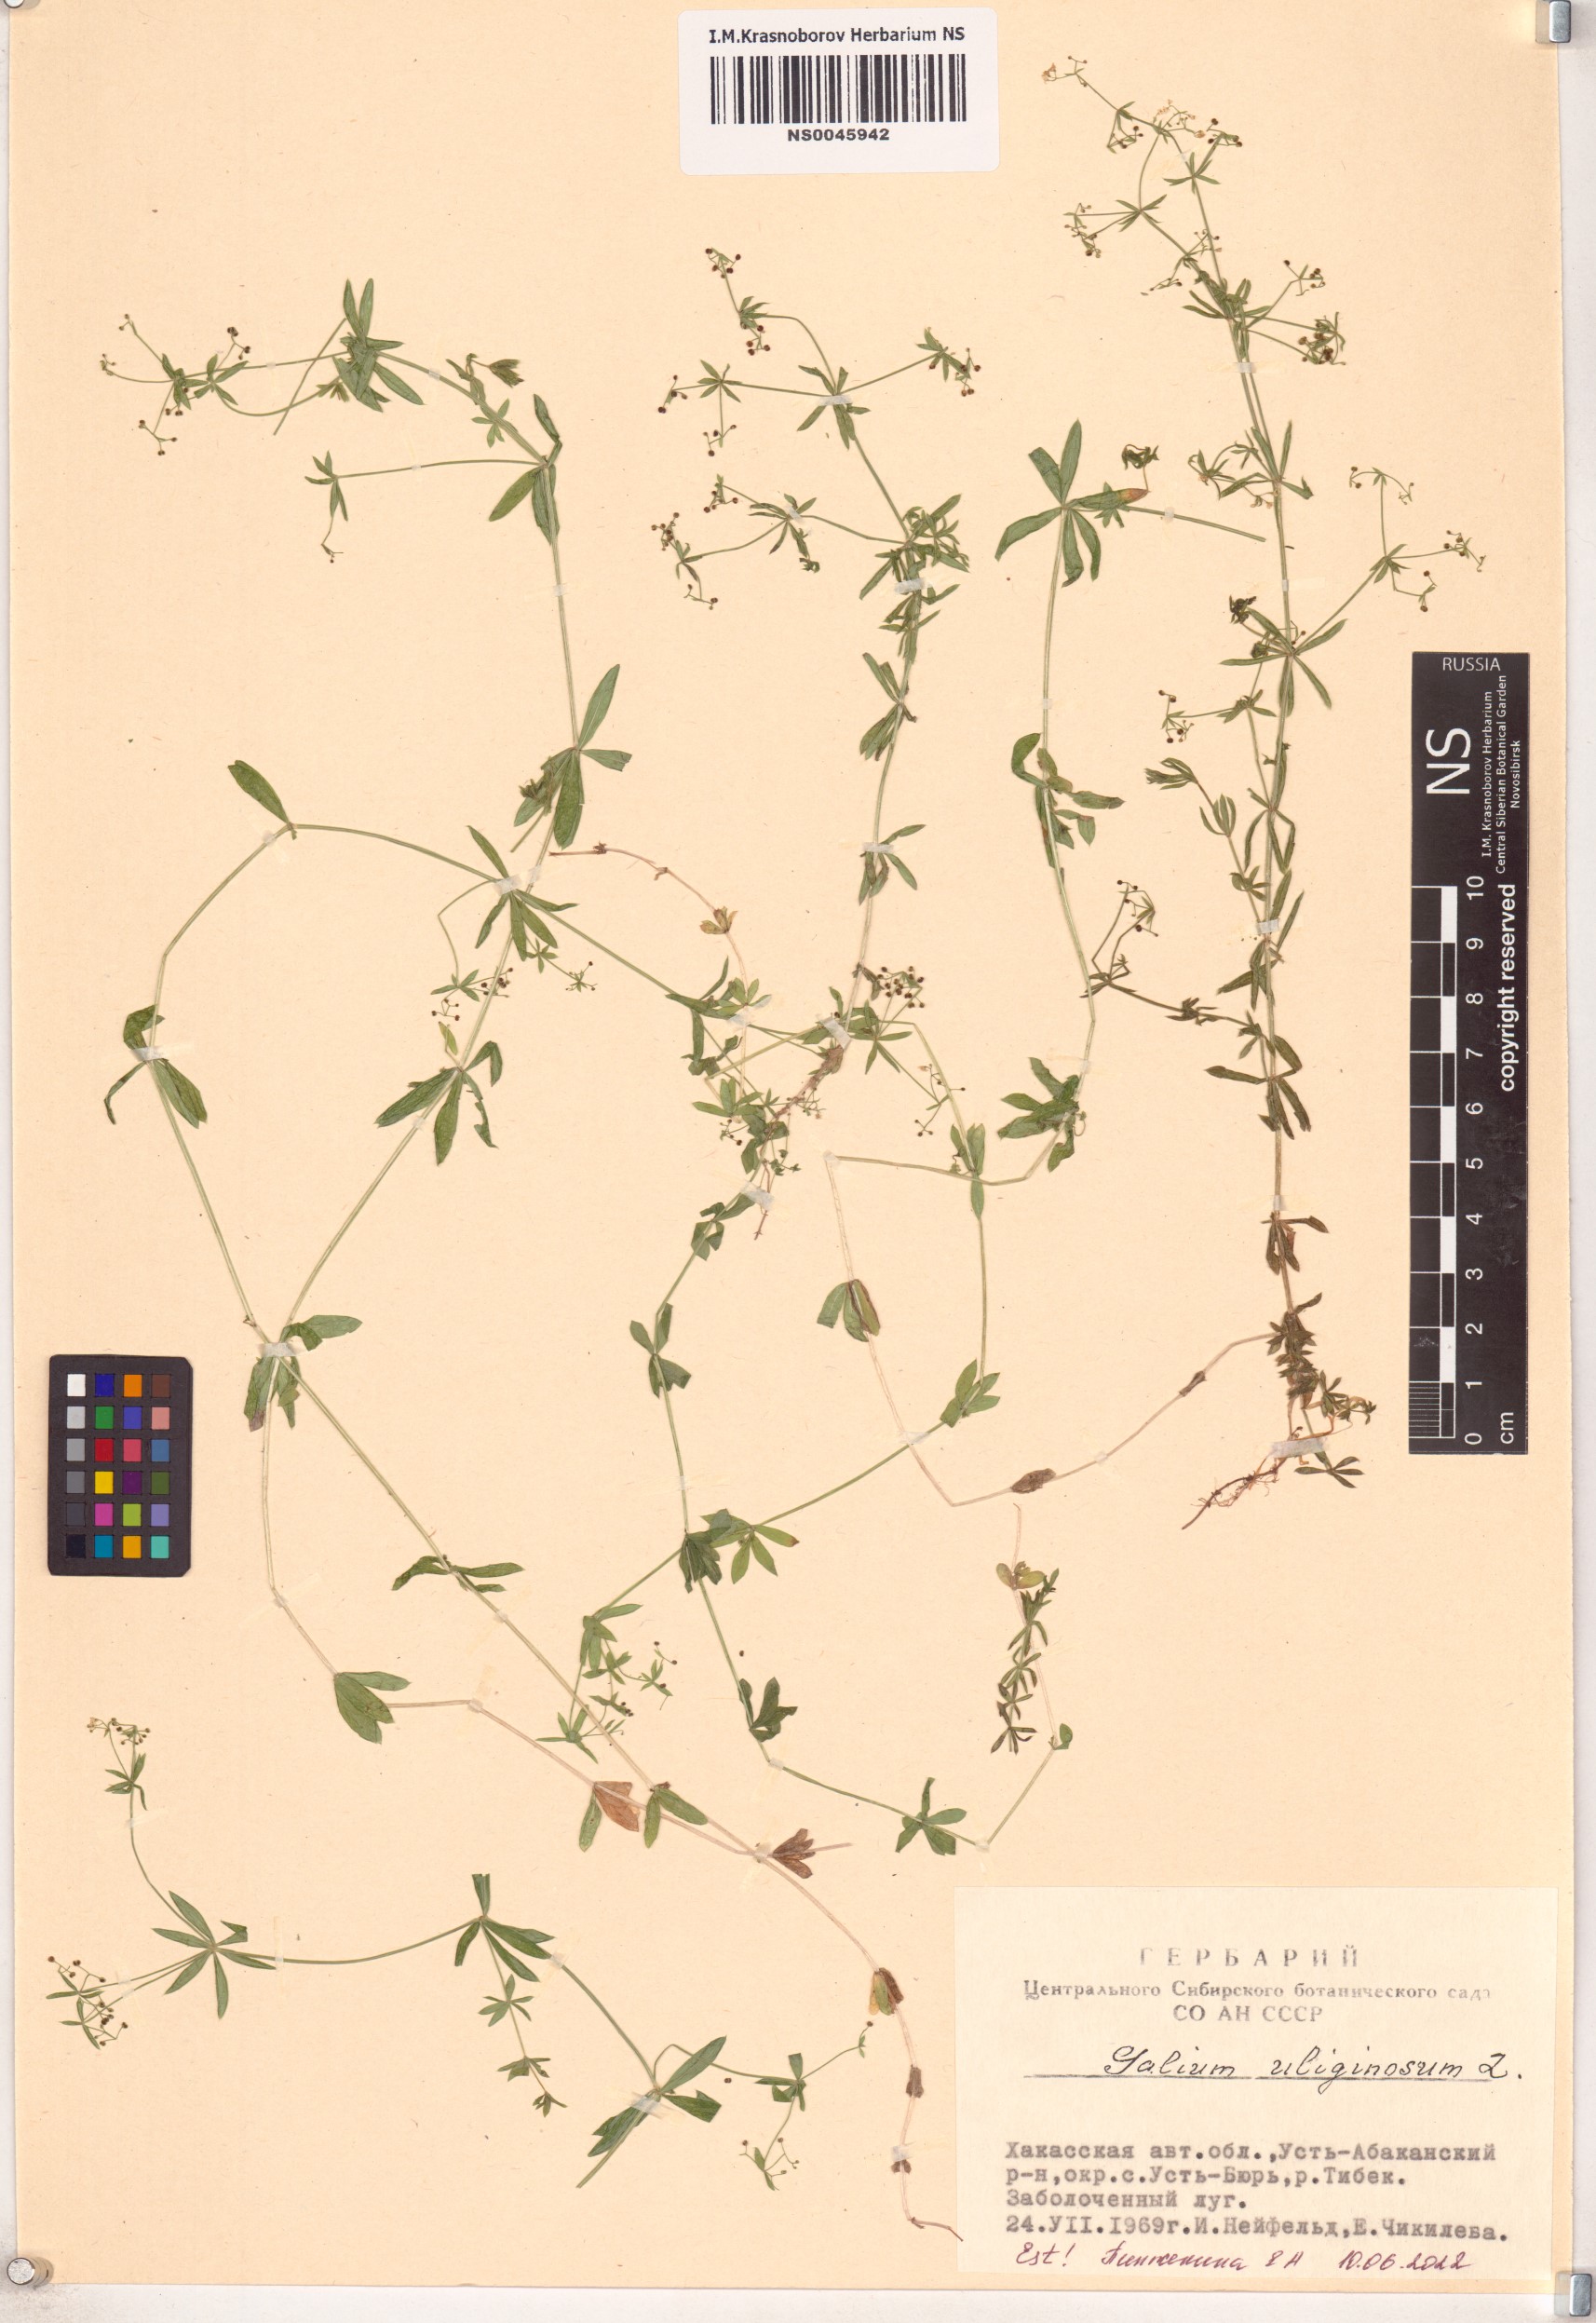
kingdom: Plantae
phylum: Tracheophyta
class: Magnoliopsida
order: Gentianales
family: Rubiaceae
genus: Galium
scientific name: Galium uliginosum
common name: Fen bedstraw
